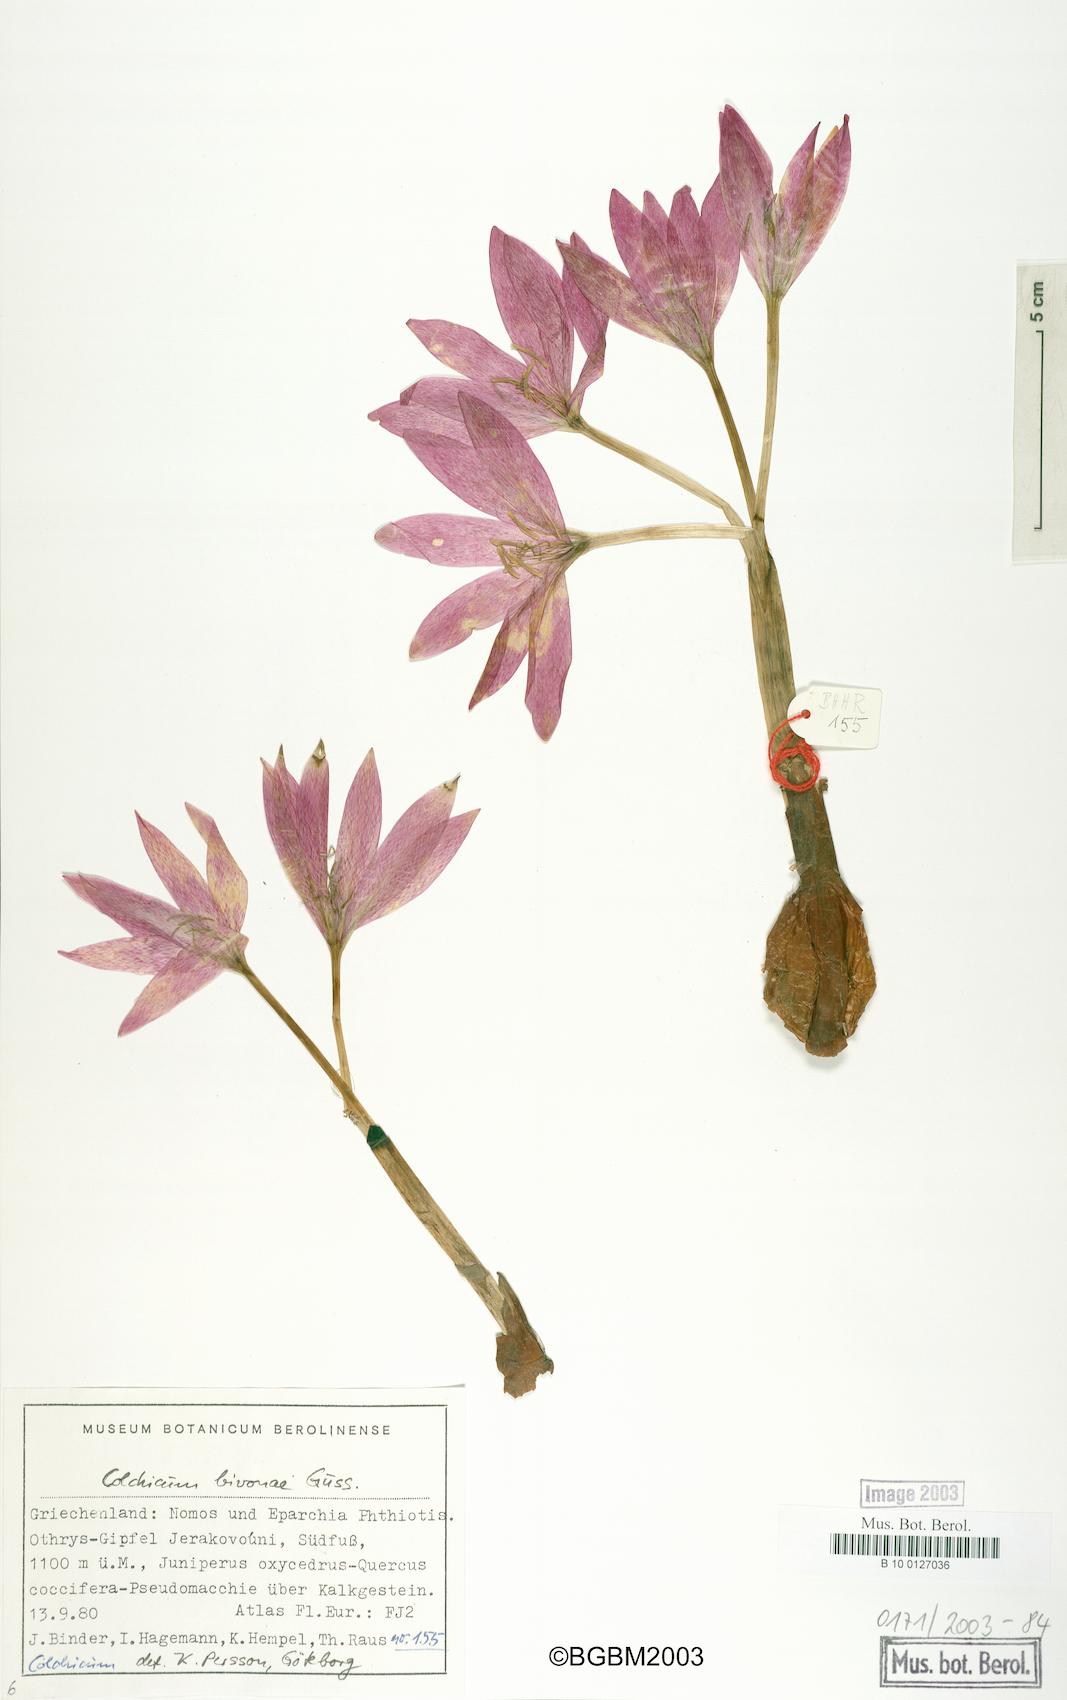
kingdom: Plantae
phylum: Tracheophyta
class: Liliopsida
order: Liliales
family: Colchicaceae
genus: Colchicum
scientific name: Colchicum bivonae
